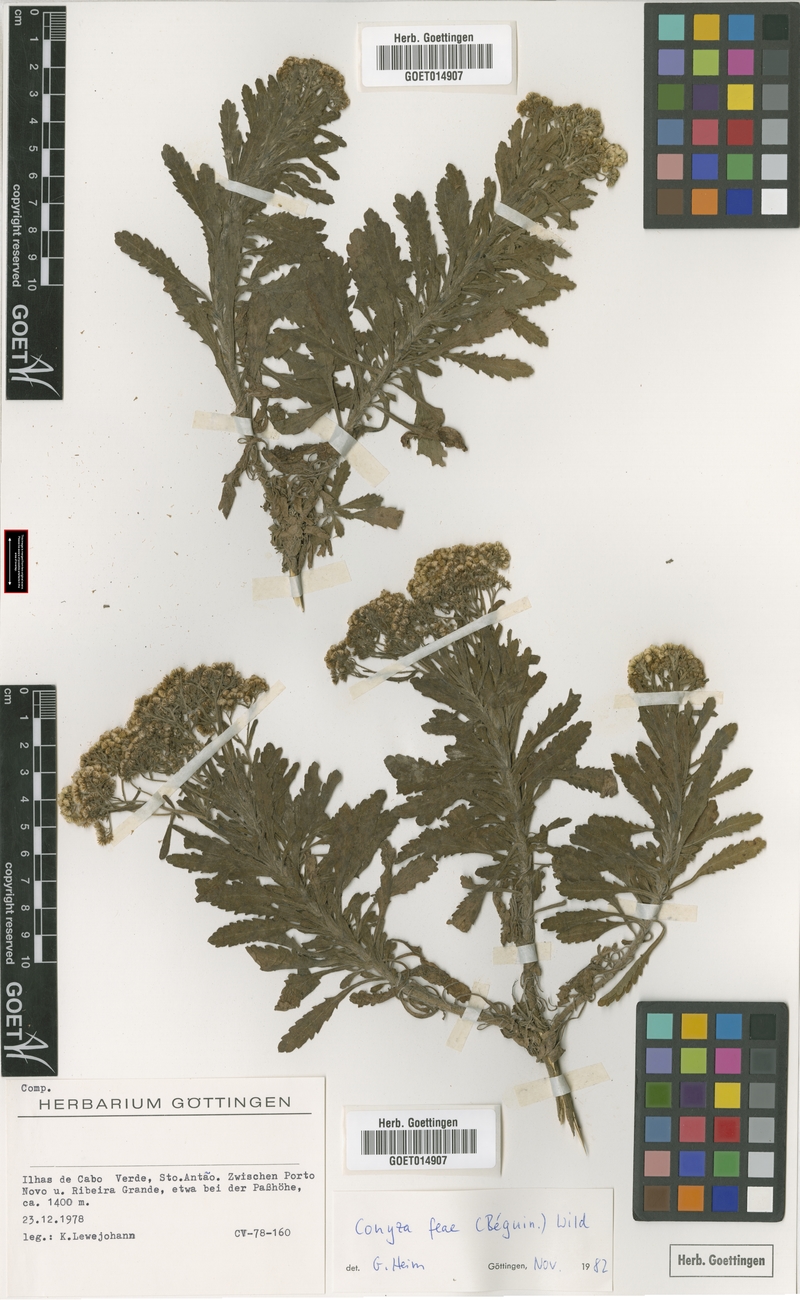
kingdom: Plantae
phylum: Tracheophyta
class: Magnoliopsida
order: Asterales
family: Asteraceae
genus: Nidorella
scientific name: Nidorella nobrei
